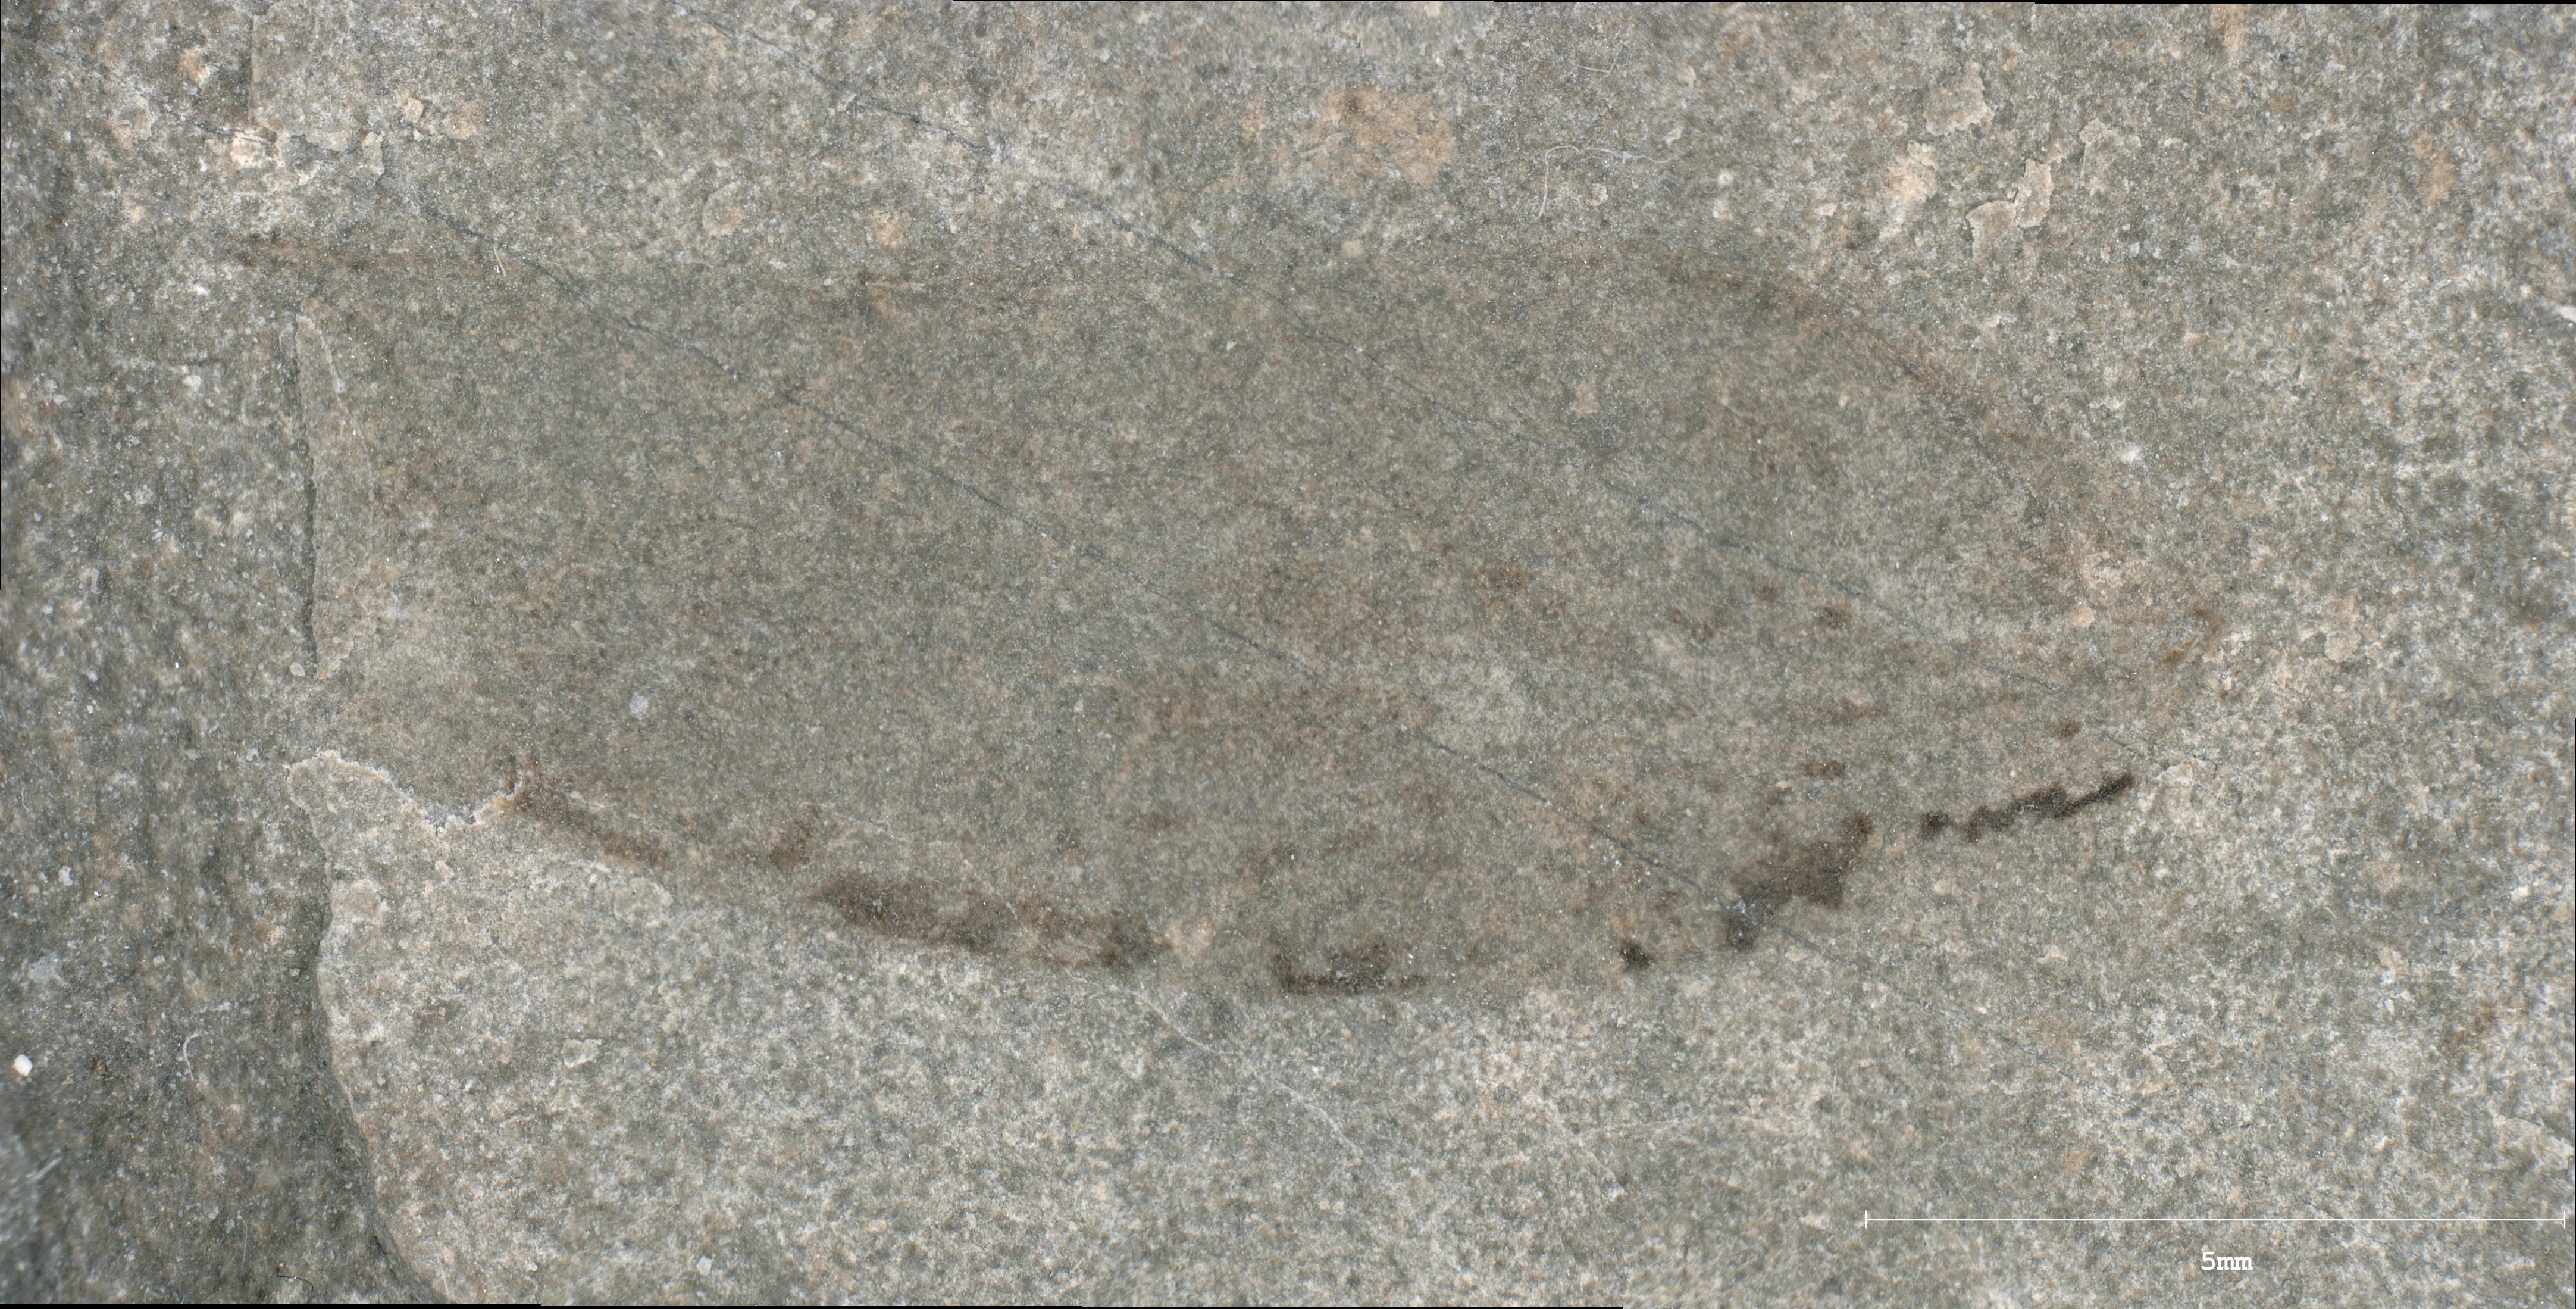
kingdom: Animalia
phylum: Arthropoda
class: Insecta
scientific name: Insecta
